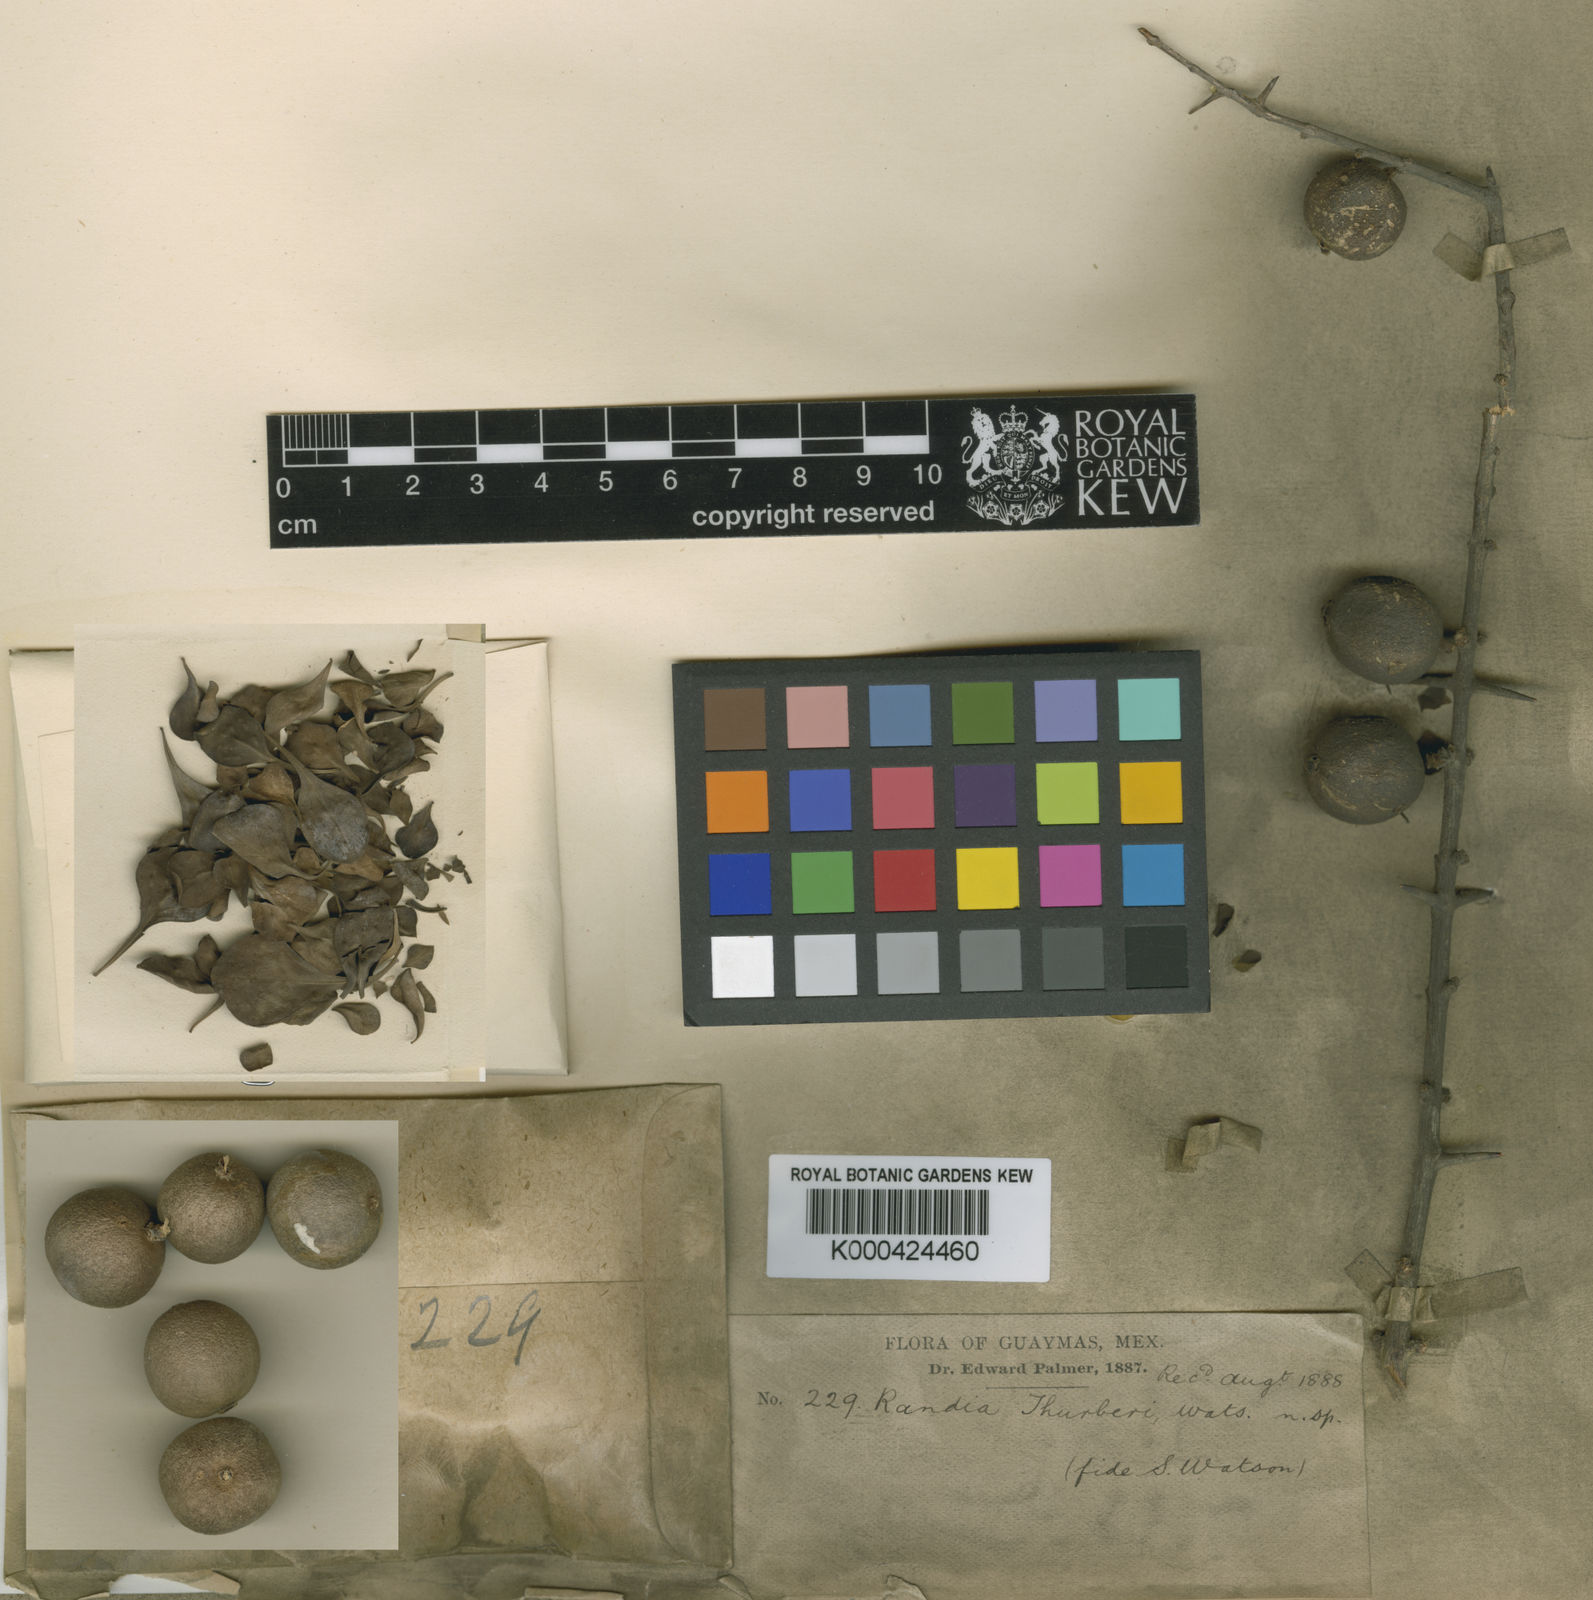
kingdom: Plantae
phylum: Tracheophyta
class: Magnoliopsida
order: Gentianales
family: Rubiaceae
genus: Randia
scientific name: Randia thurberi
